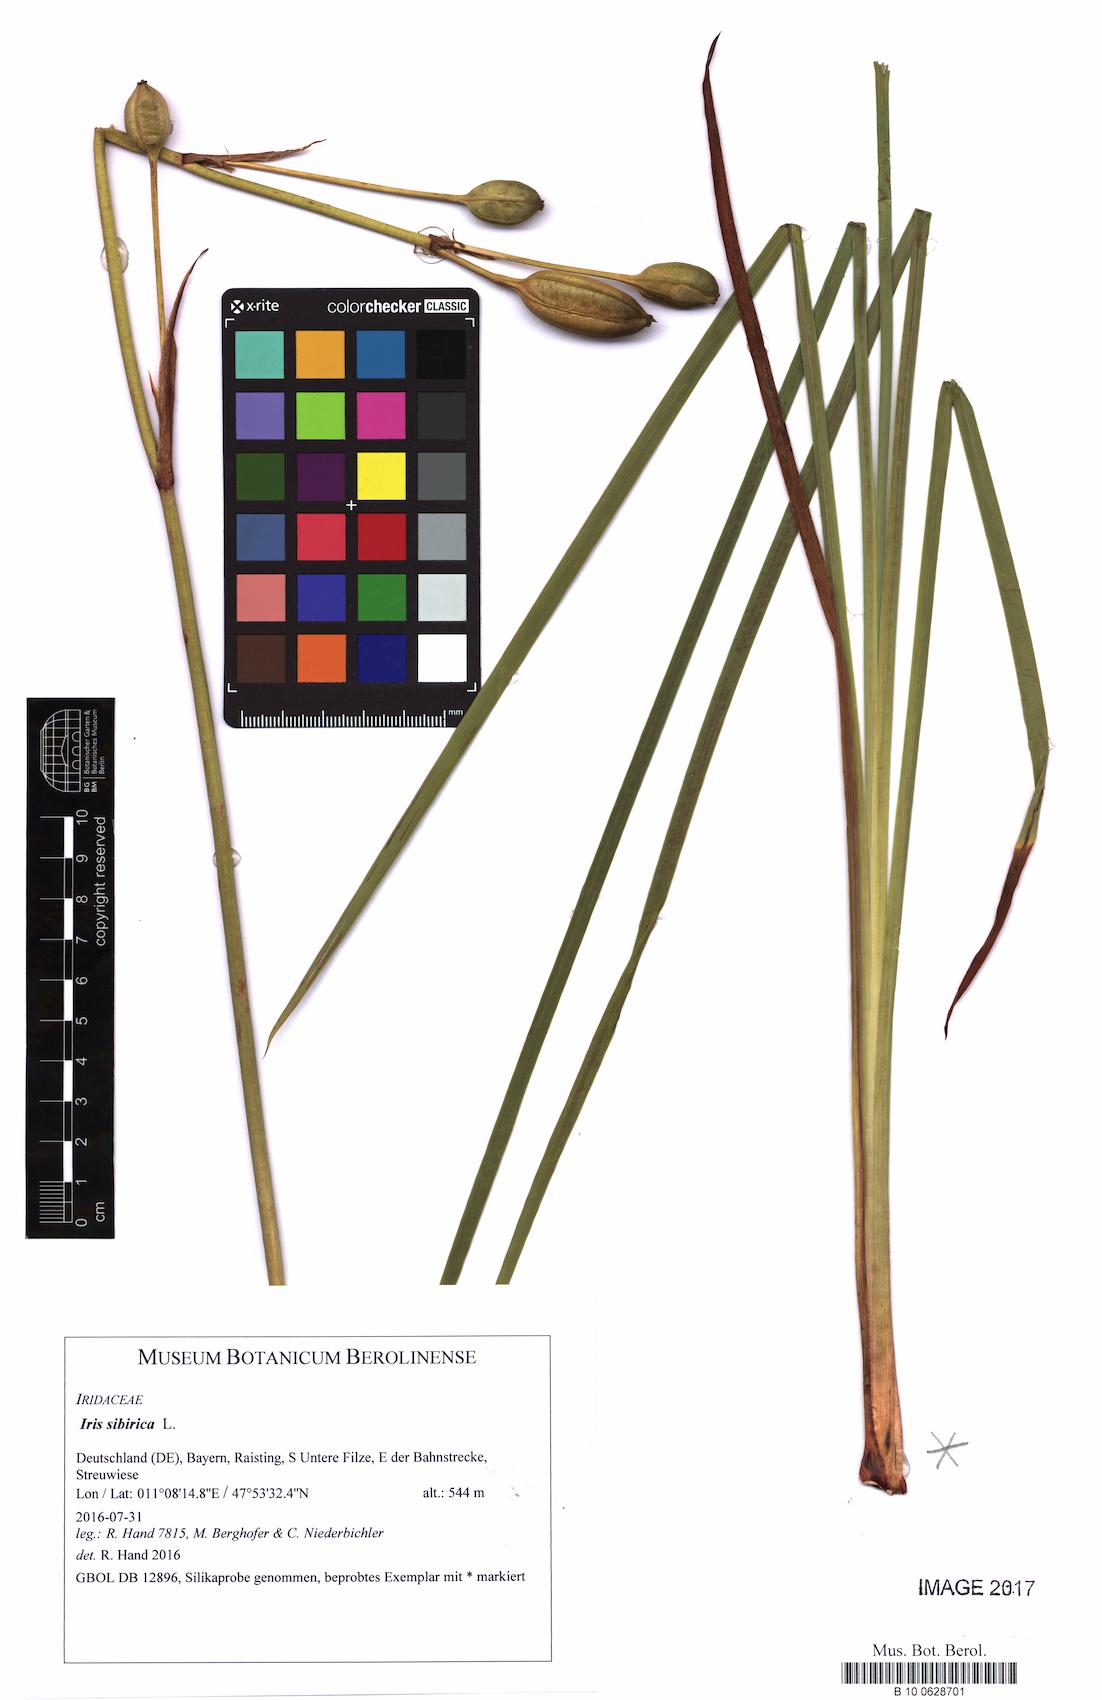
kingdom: Plantae
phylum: Tracheophyta
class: Liliopsida
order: Asparagales
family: Iridaceae
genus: Iris
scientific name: Iris sibirica
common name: Siberian iris
